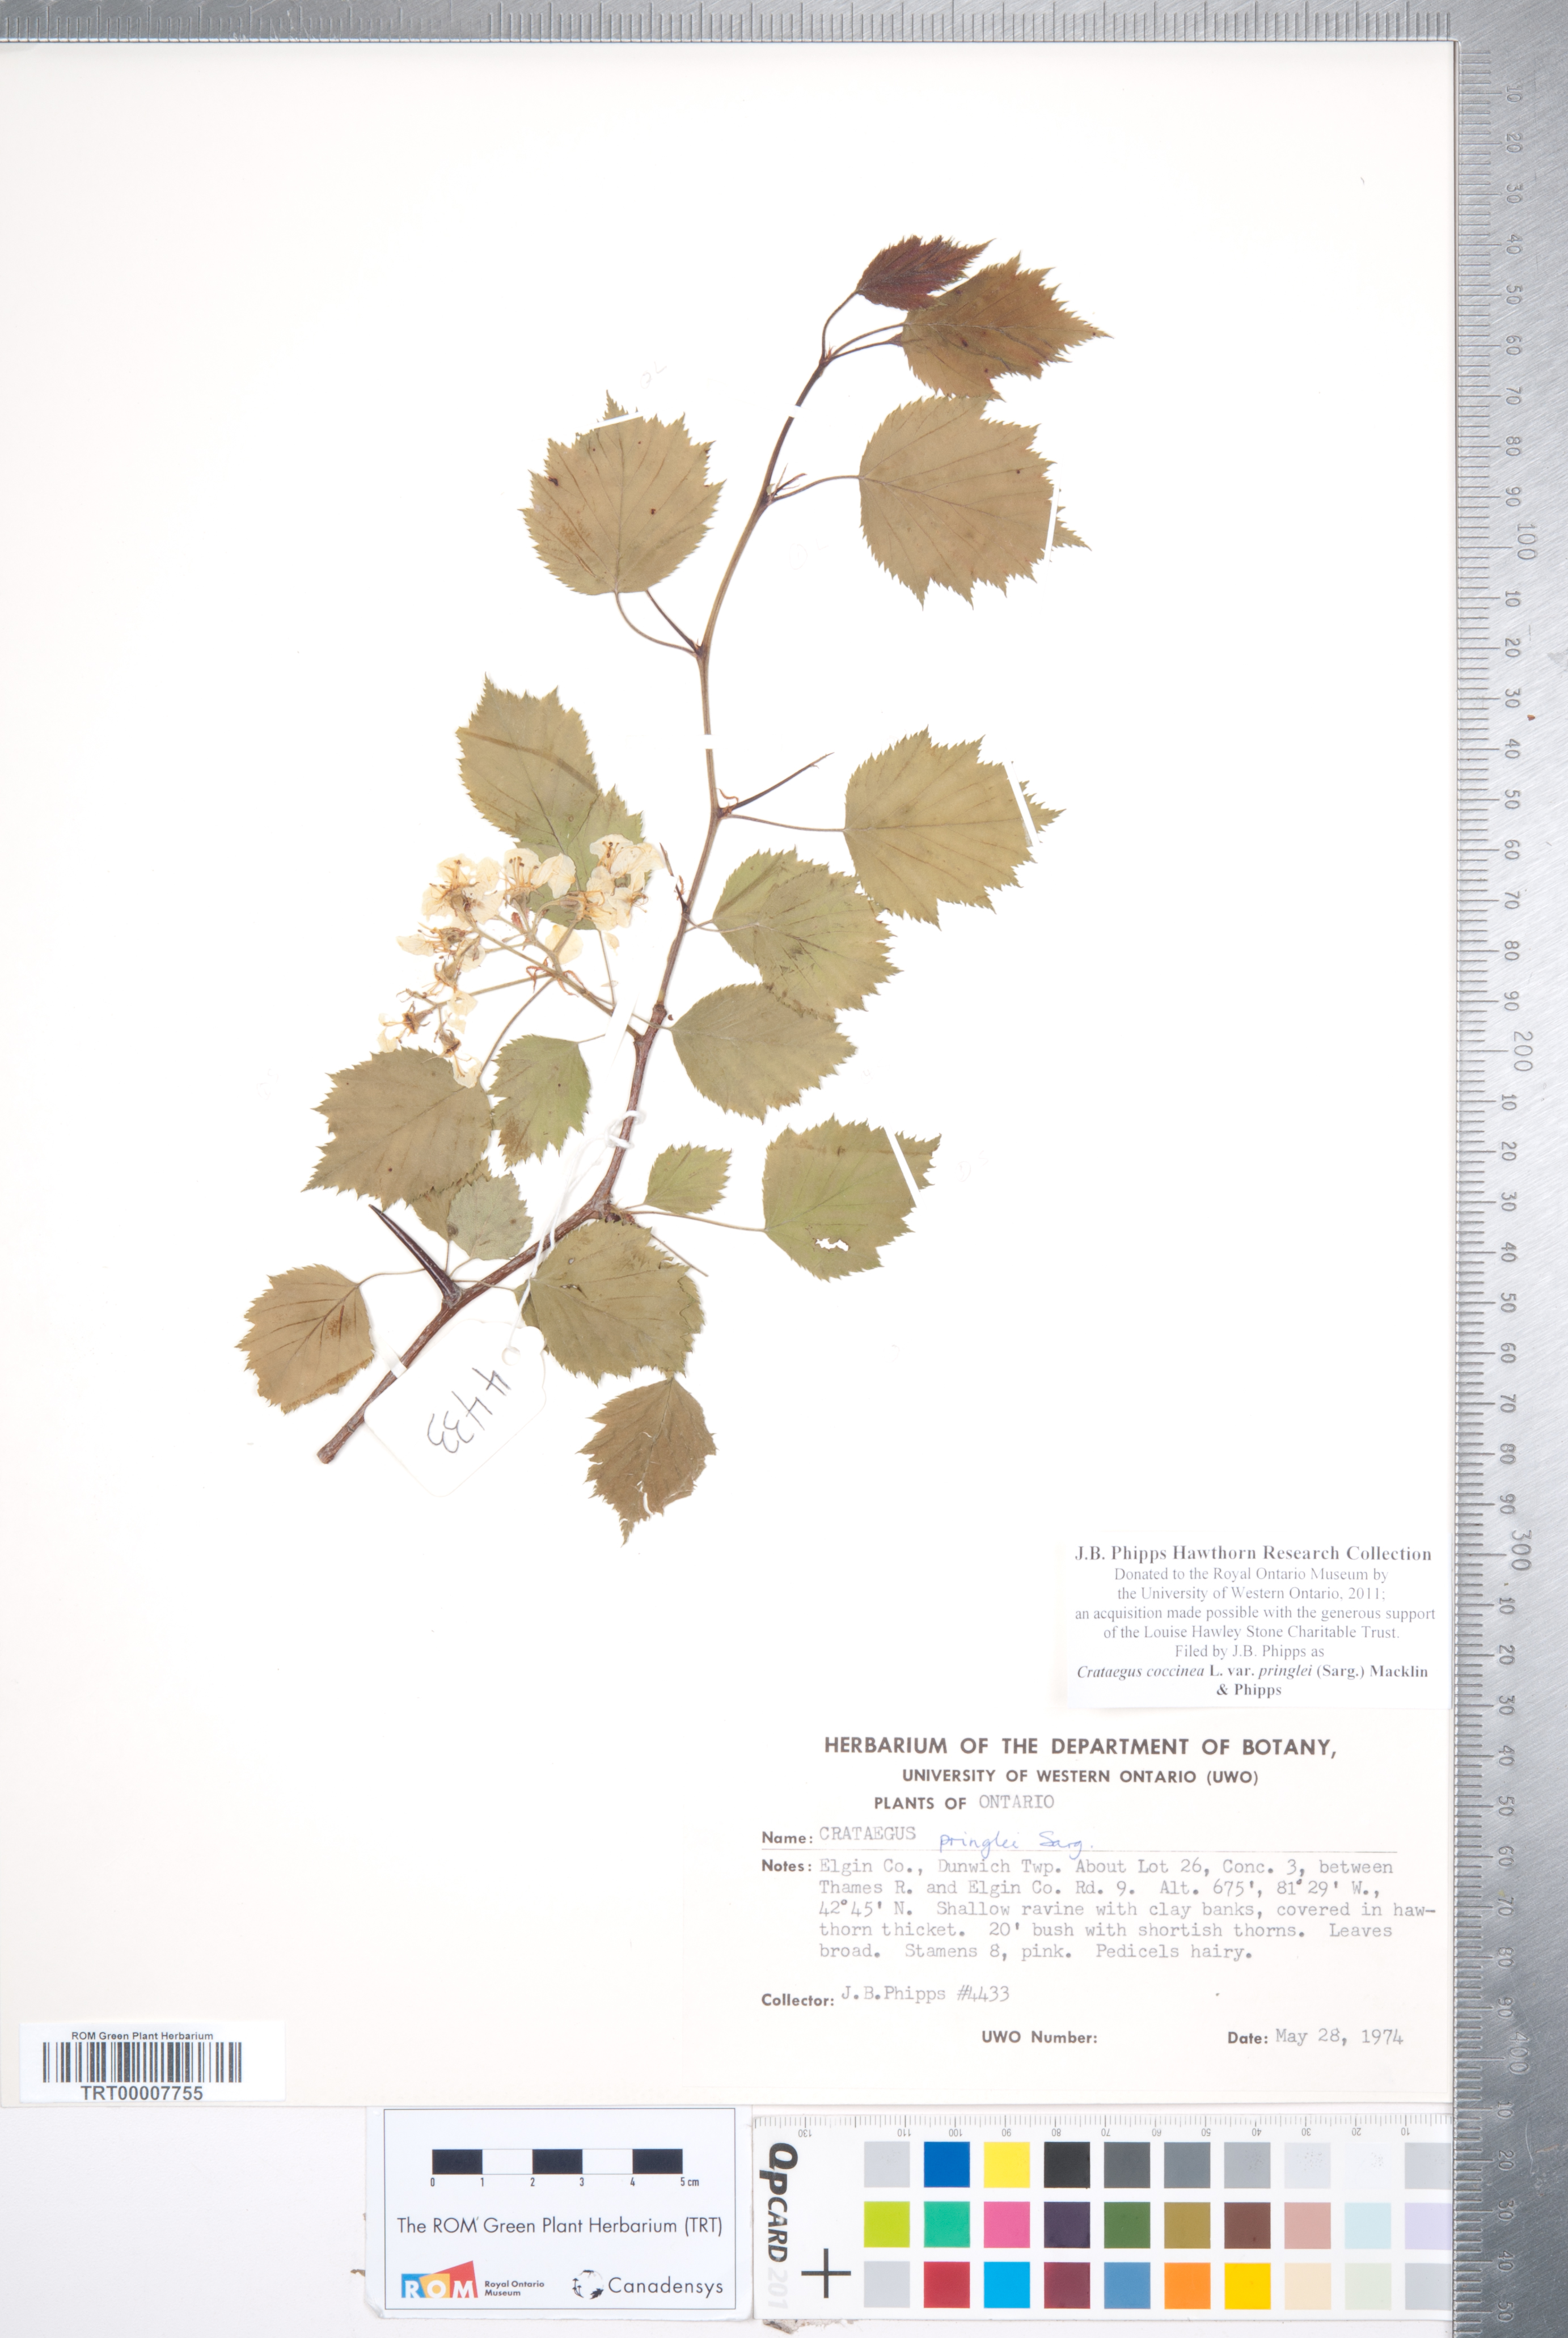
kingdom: Plantae
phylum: Tracheophyta
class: Magnoliopsida
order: Rosales
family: Rosaceae
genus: Crataegus
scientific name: Crataegus coccinea
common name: Scarlet hawthorn
